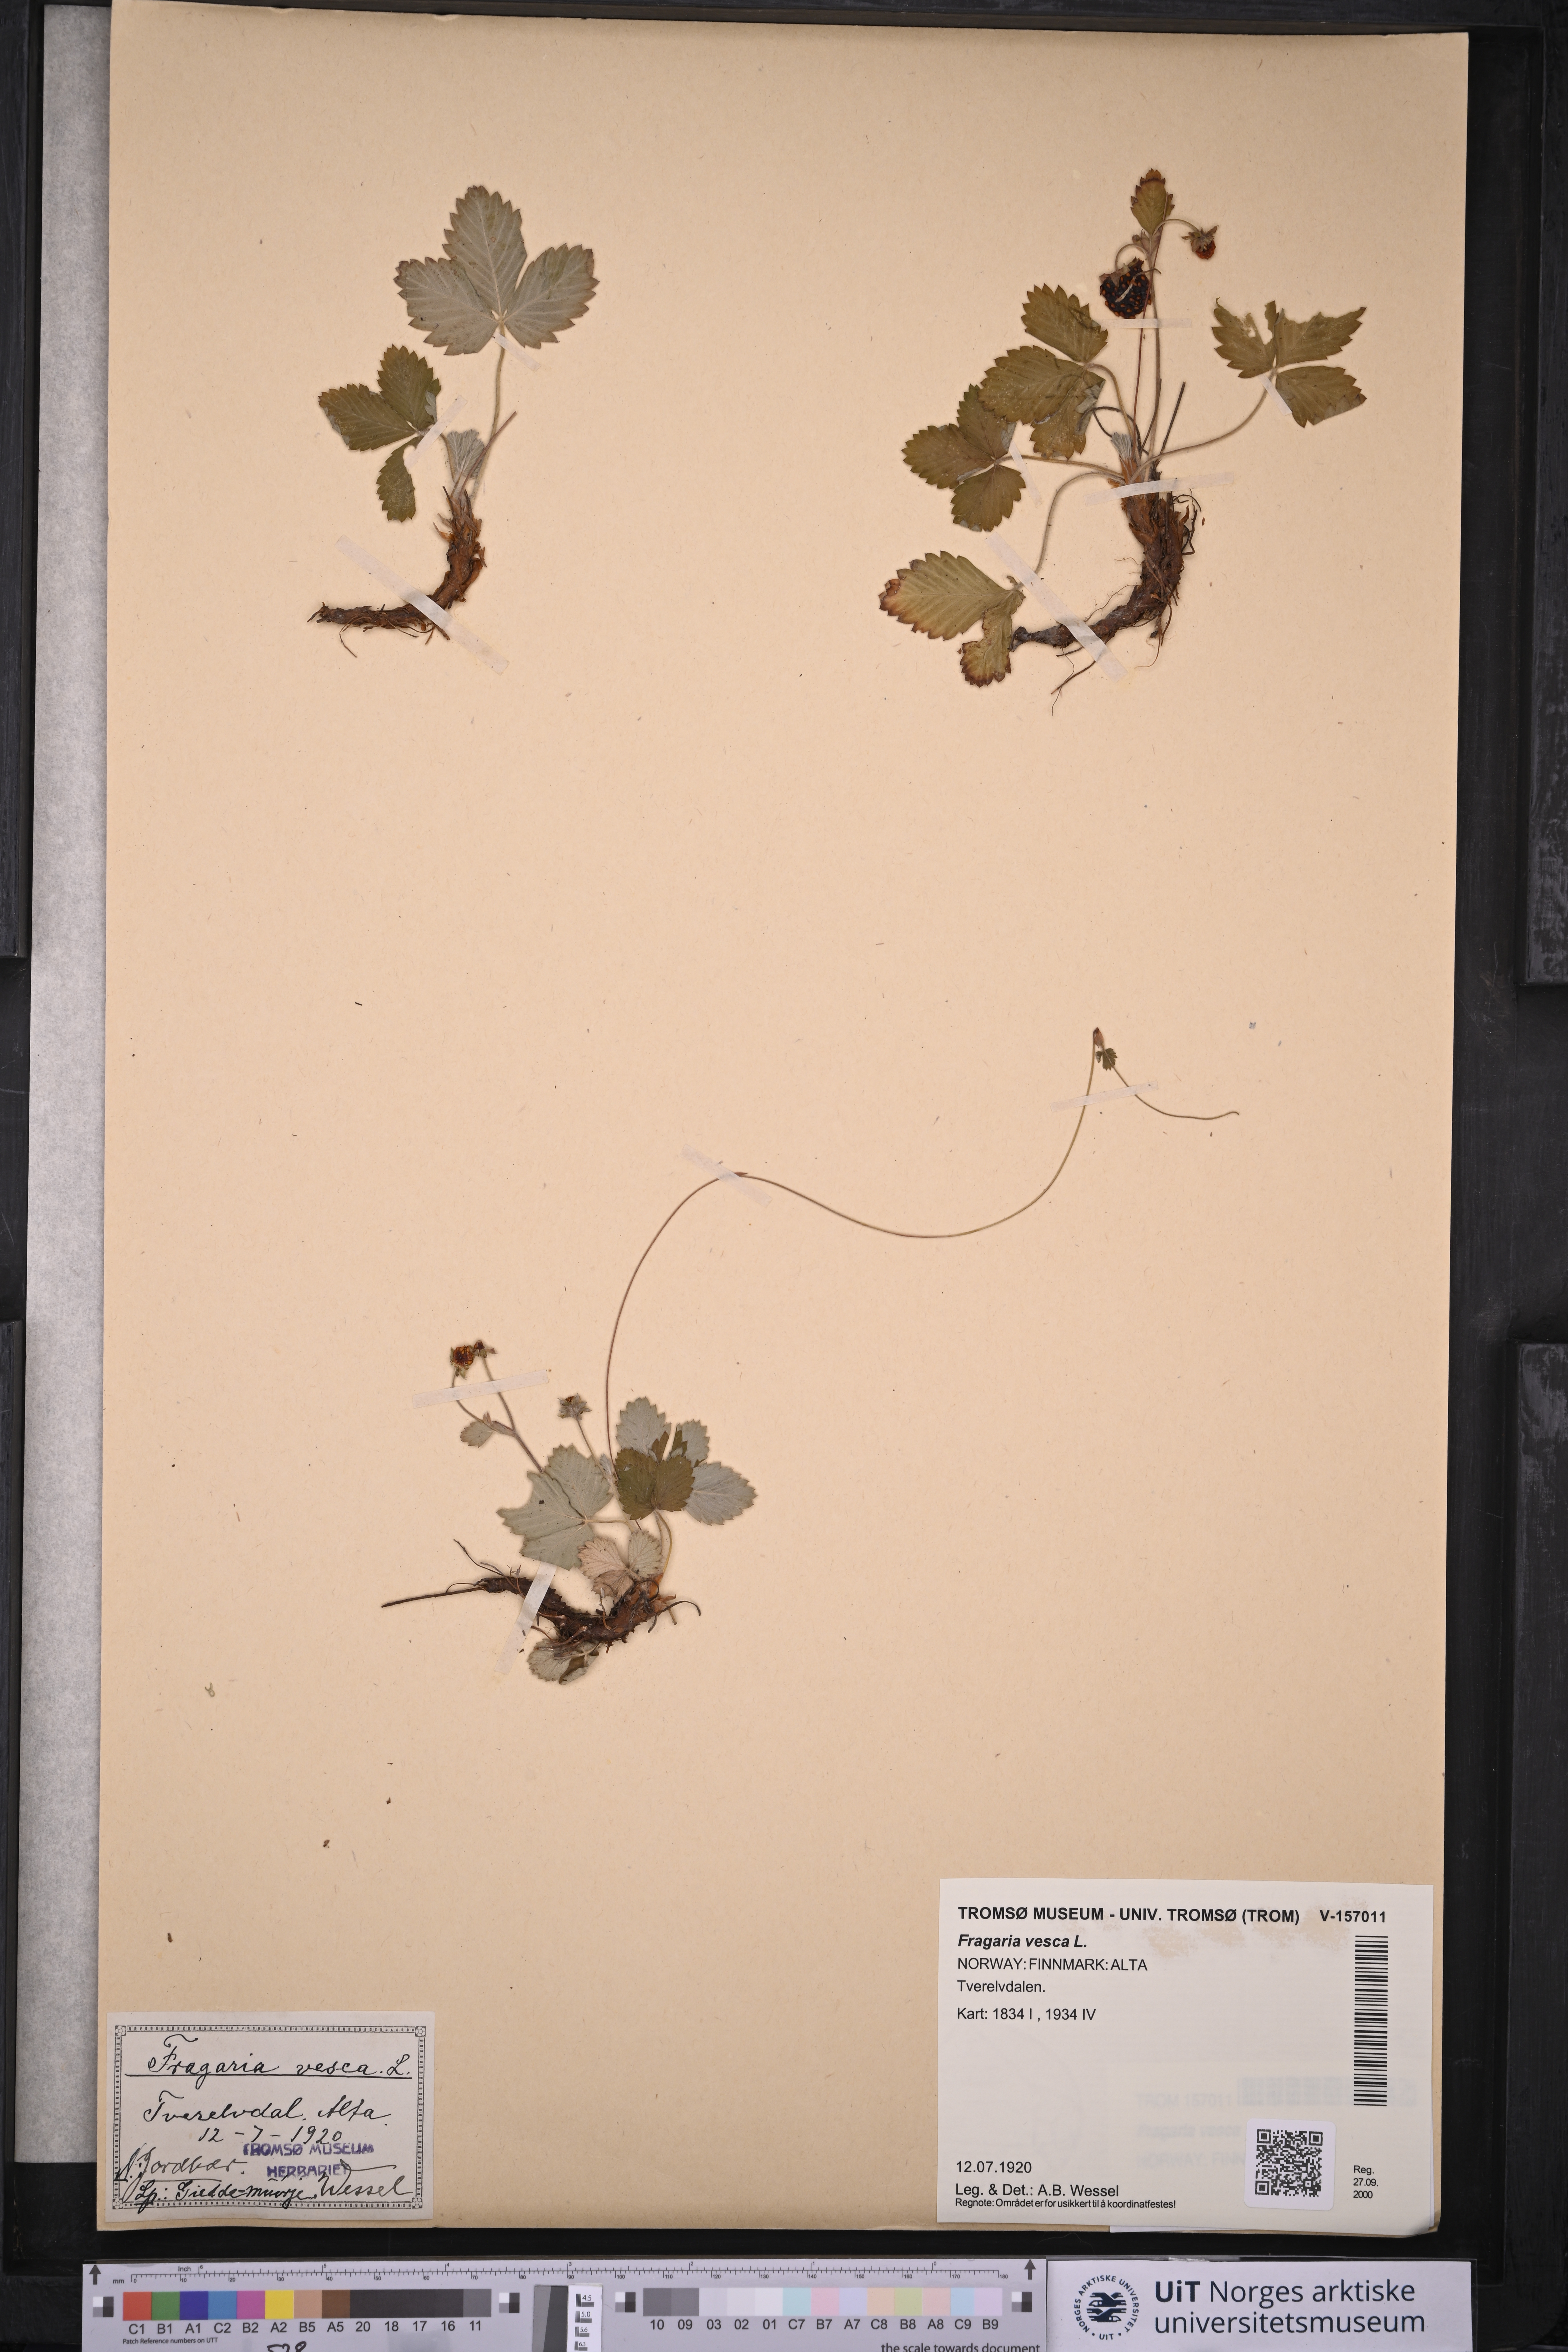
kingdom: Plantae
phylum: Tracheophyta
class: Magnoliopsida
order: Rosales
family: Rosaceae
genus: Fragaria
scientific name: Fragaria vesca
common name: Wild strawberry
